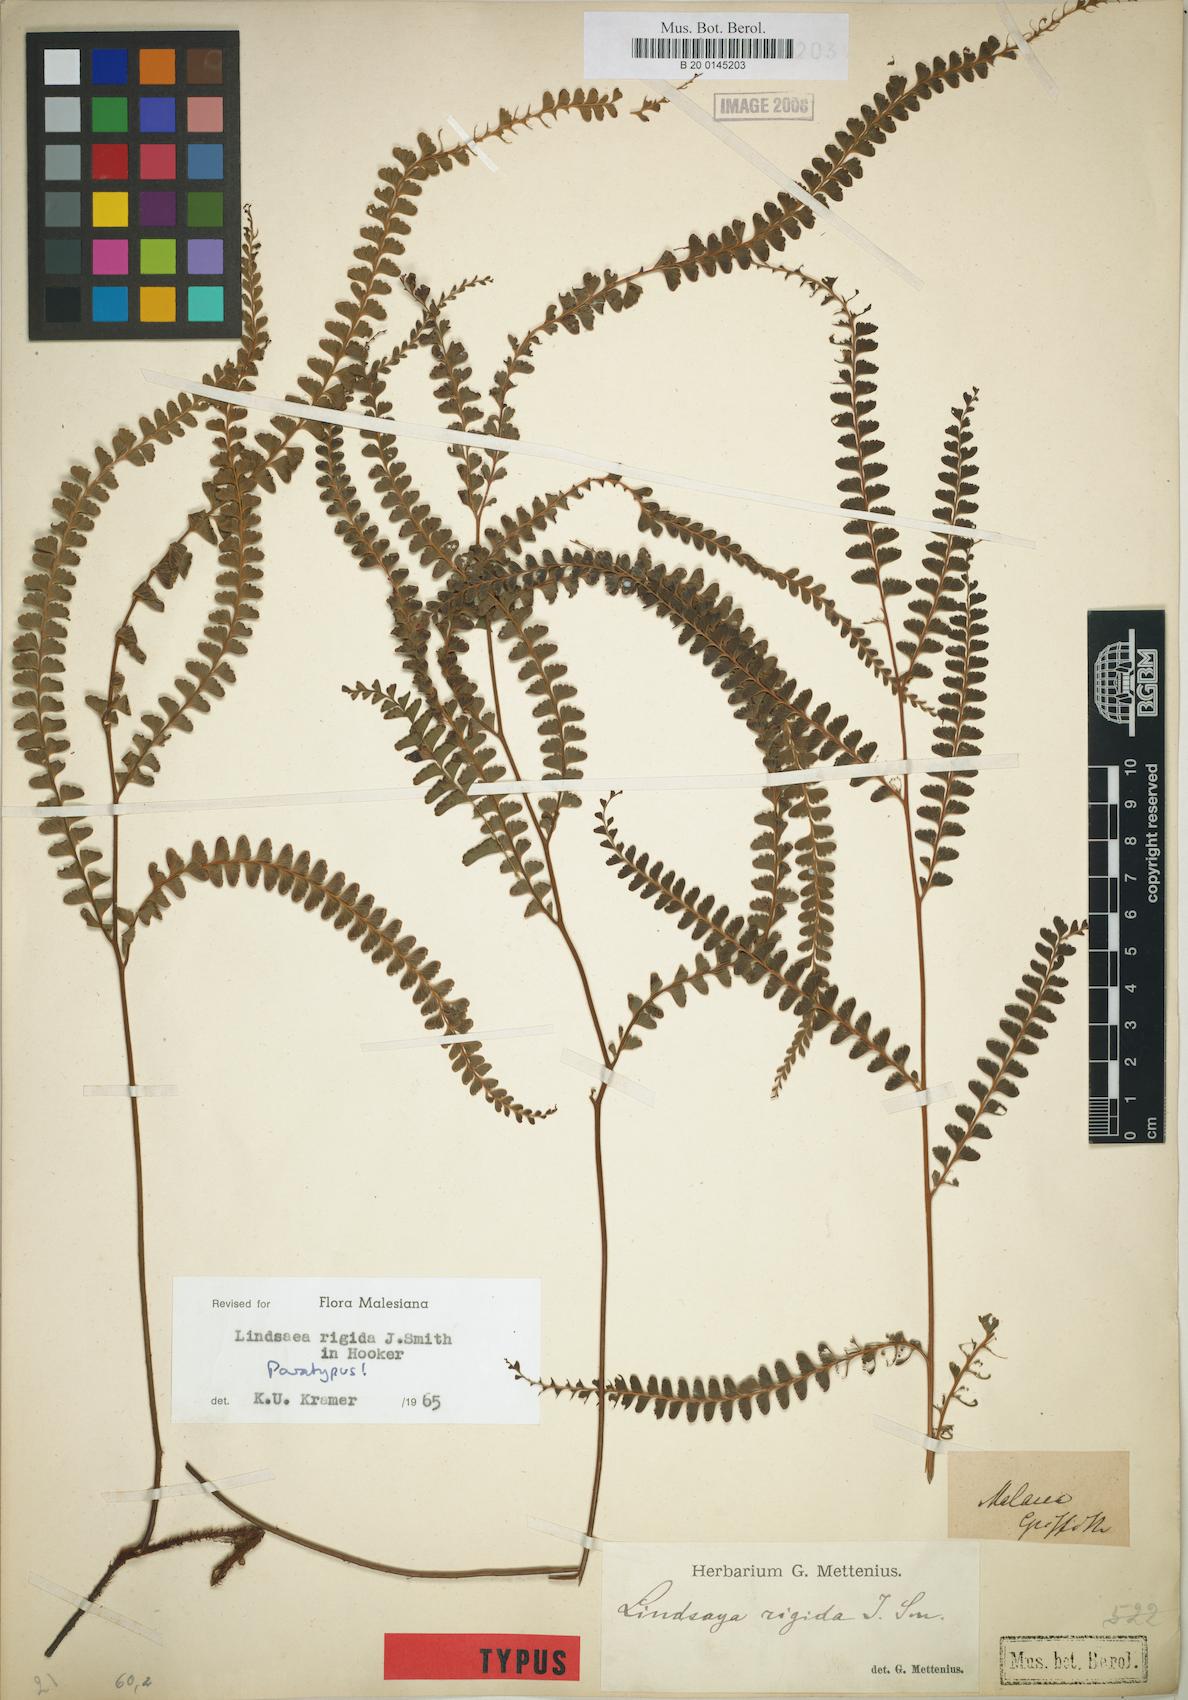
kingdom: Plantae
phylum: Tracheophyta
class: Polypodiopsida
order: Polypodiales
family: Lindsaeaceae
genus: Lindsaea
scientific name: Lindsaea rigida
